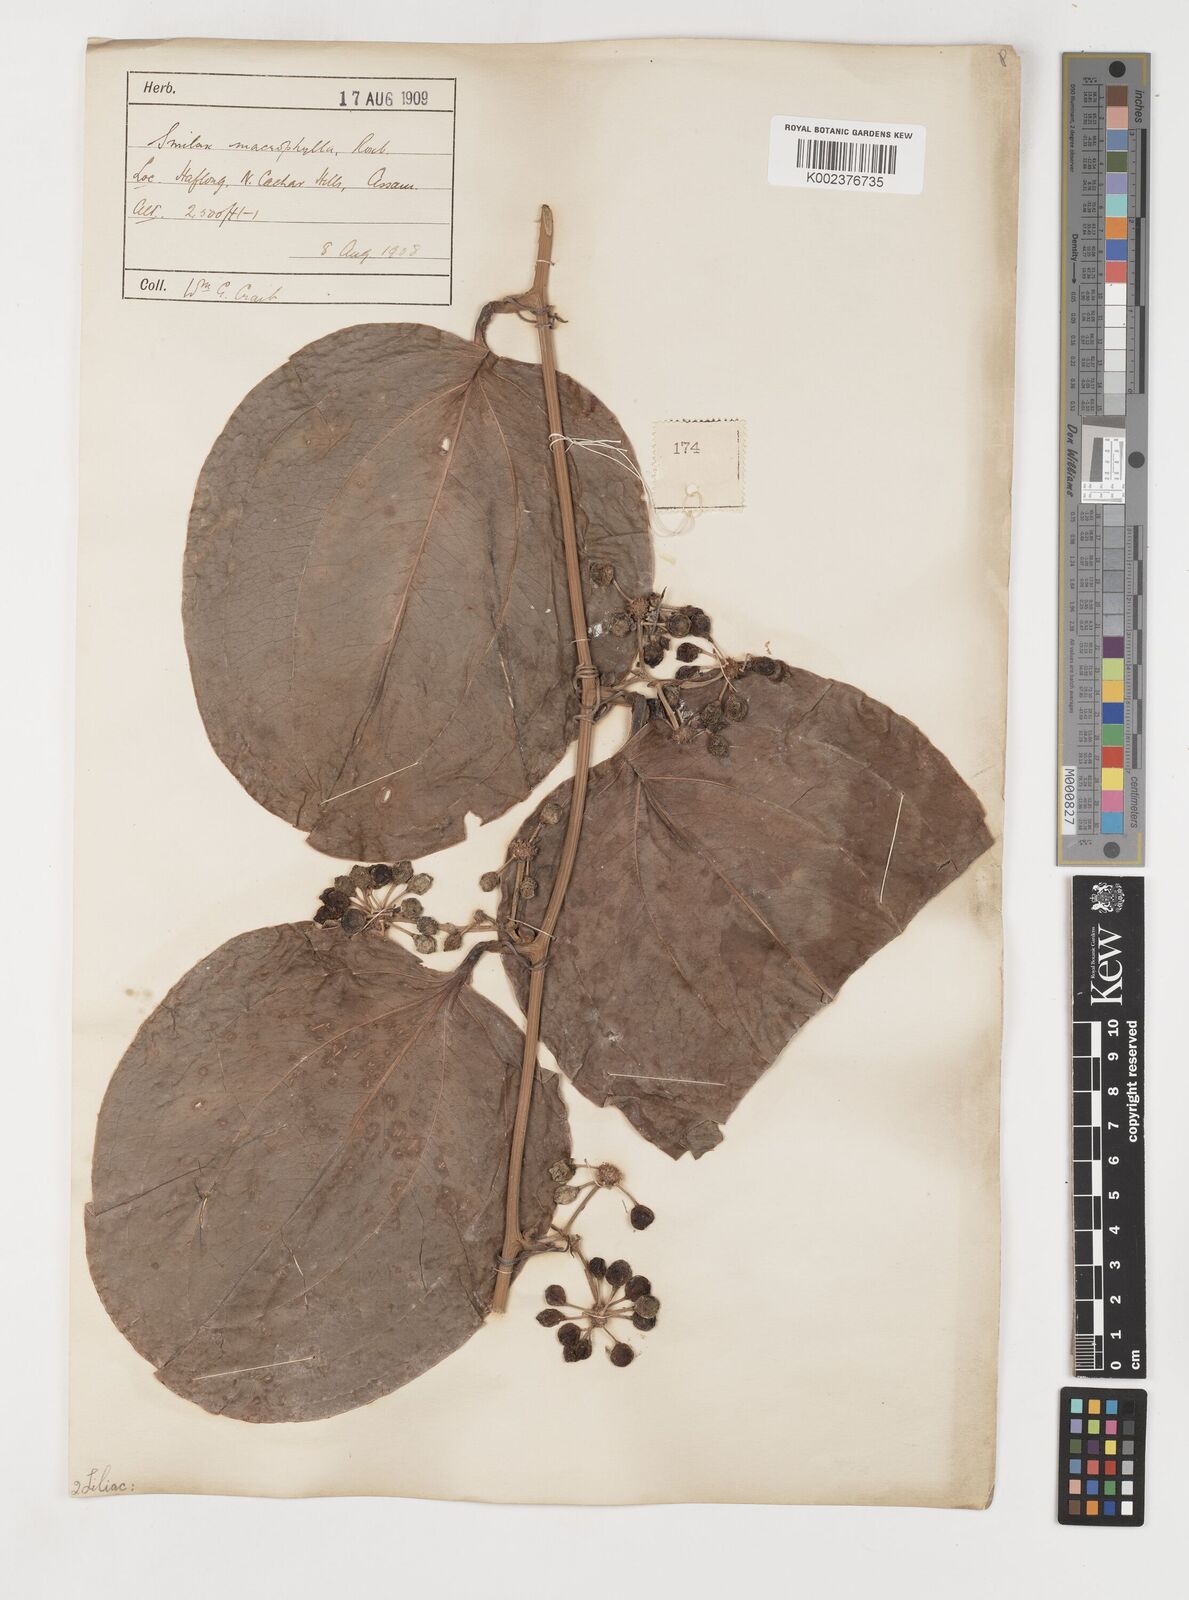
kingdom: Plantae
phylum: Tracheophyta
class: Liliopsida
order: Liliales
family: Smilacaceae
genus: Smilax
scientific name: Smilax ovalifolia
